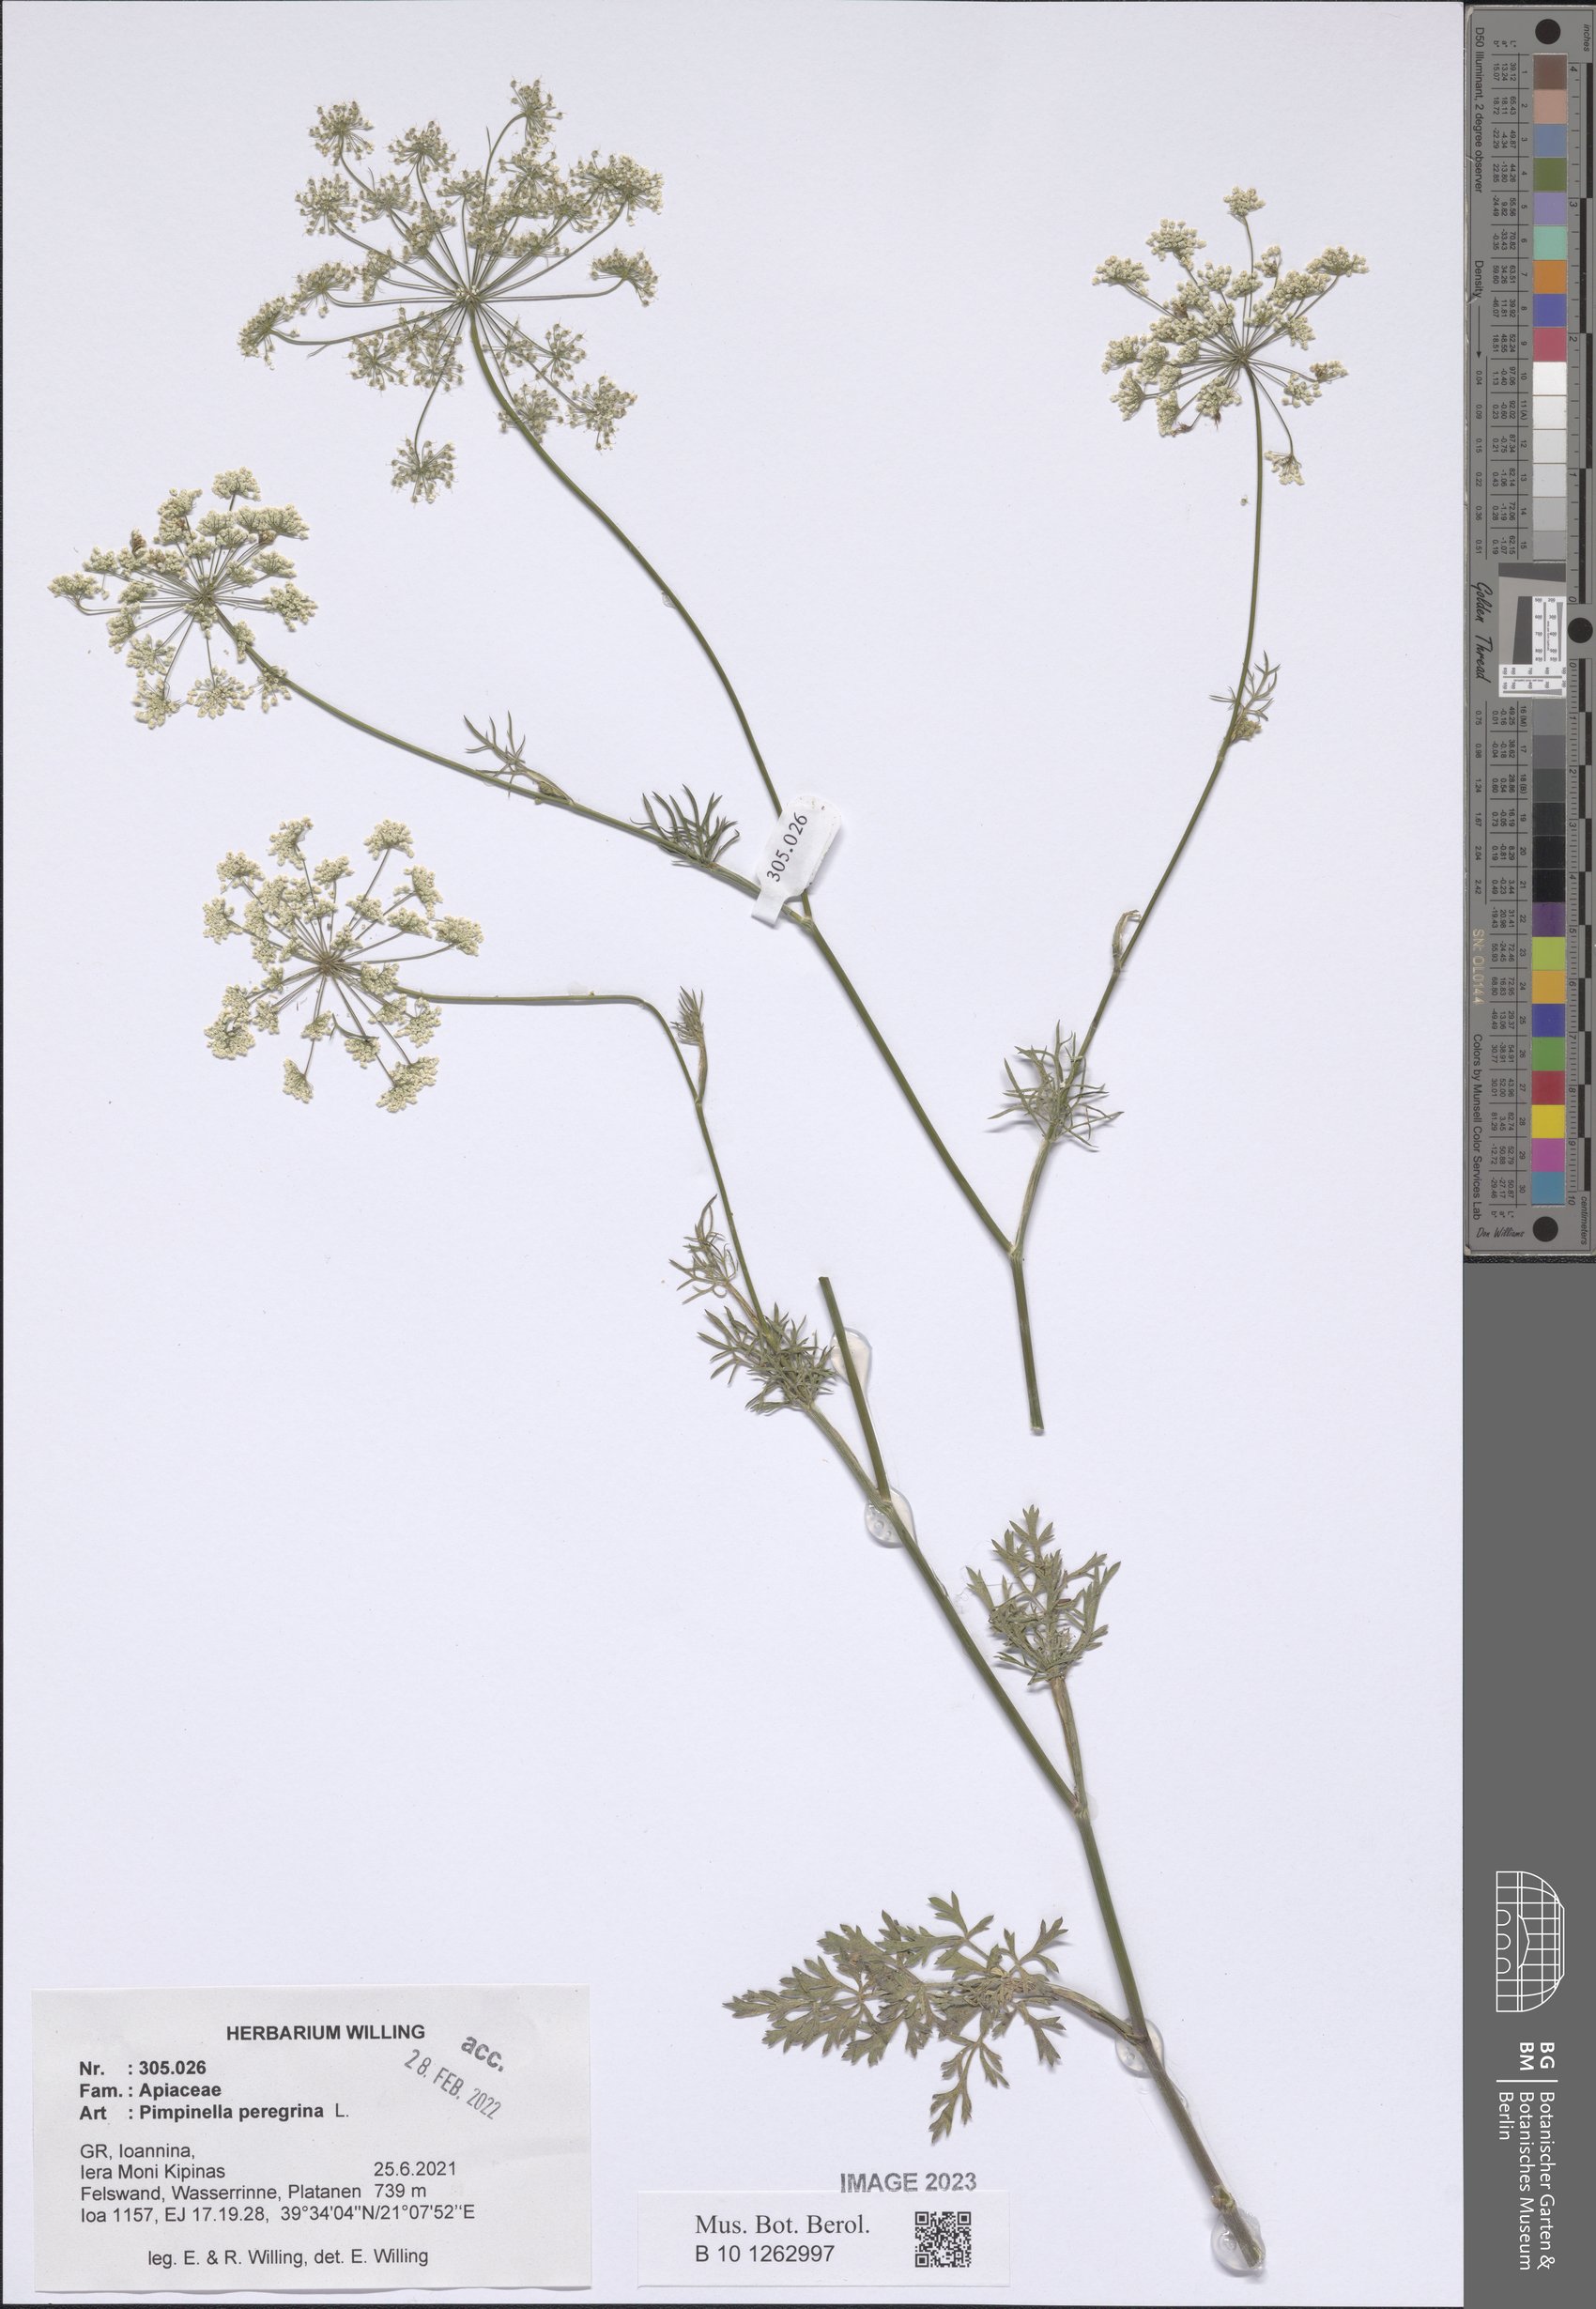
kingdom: Plantae
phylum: Tracheophyta
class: Magnoliopsida
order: Apiales
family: Apiaceae
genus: Pimpinella
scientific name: Pimpinella peregrina
